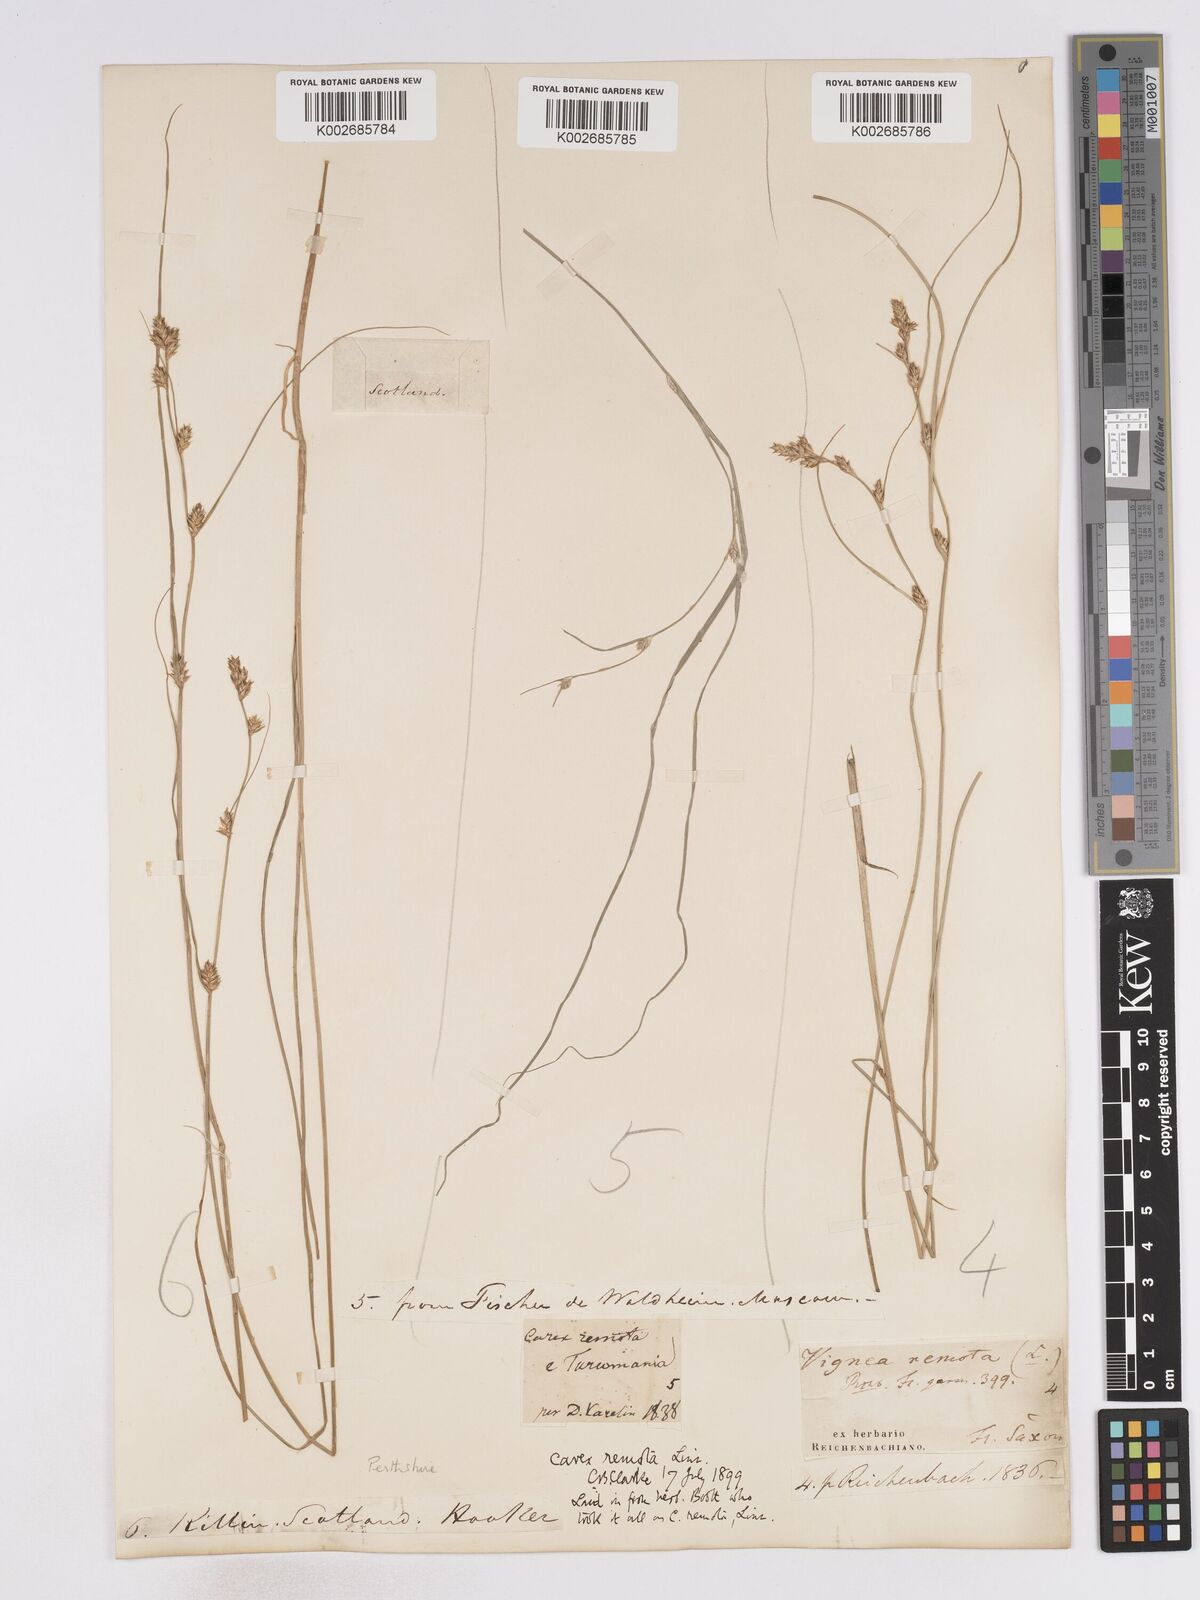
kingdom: Plantae
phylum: Tracheophyta
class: Liliopsida
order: Poales
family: Cyperaceae
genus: Carex
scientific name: Carex remota
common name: Remote sedge
